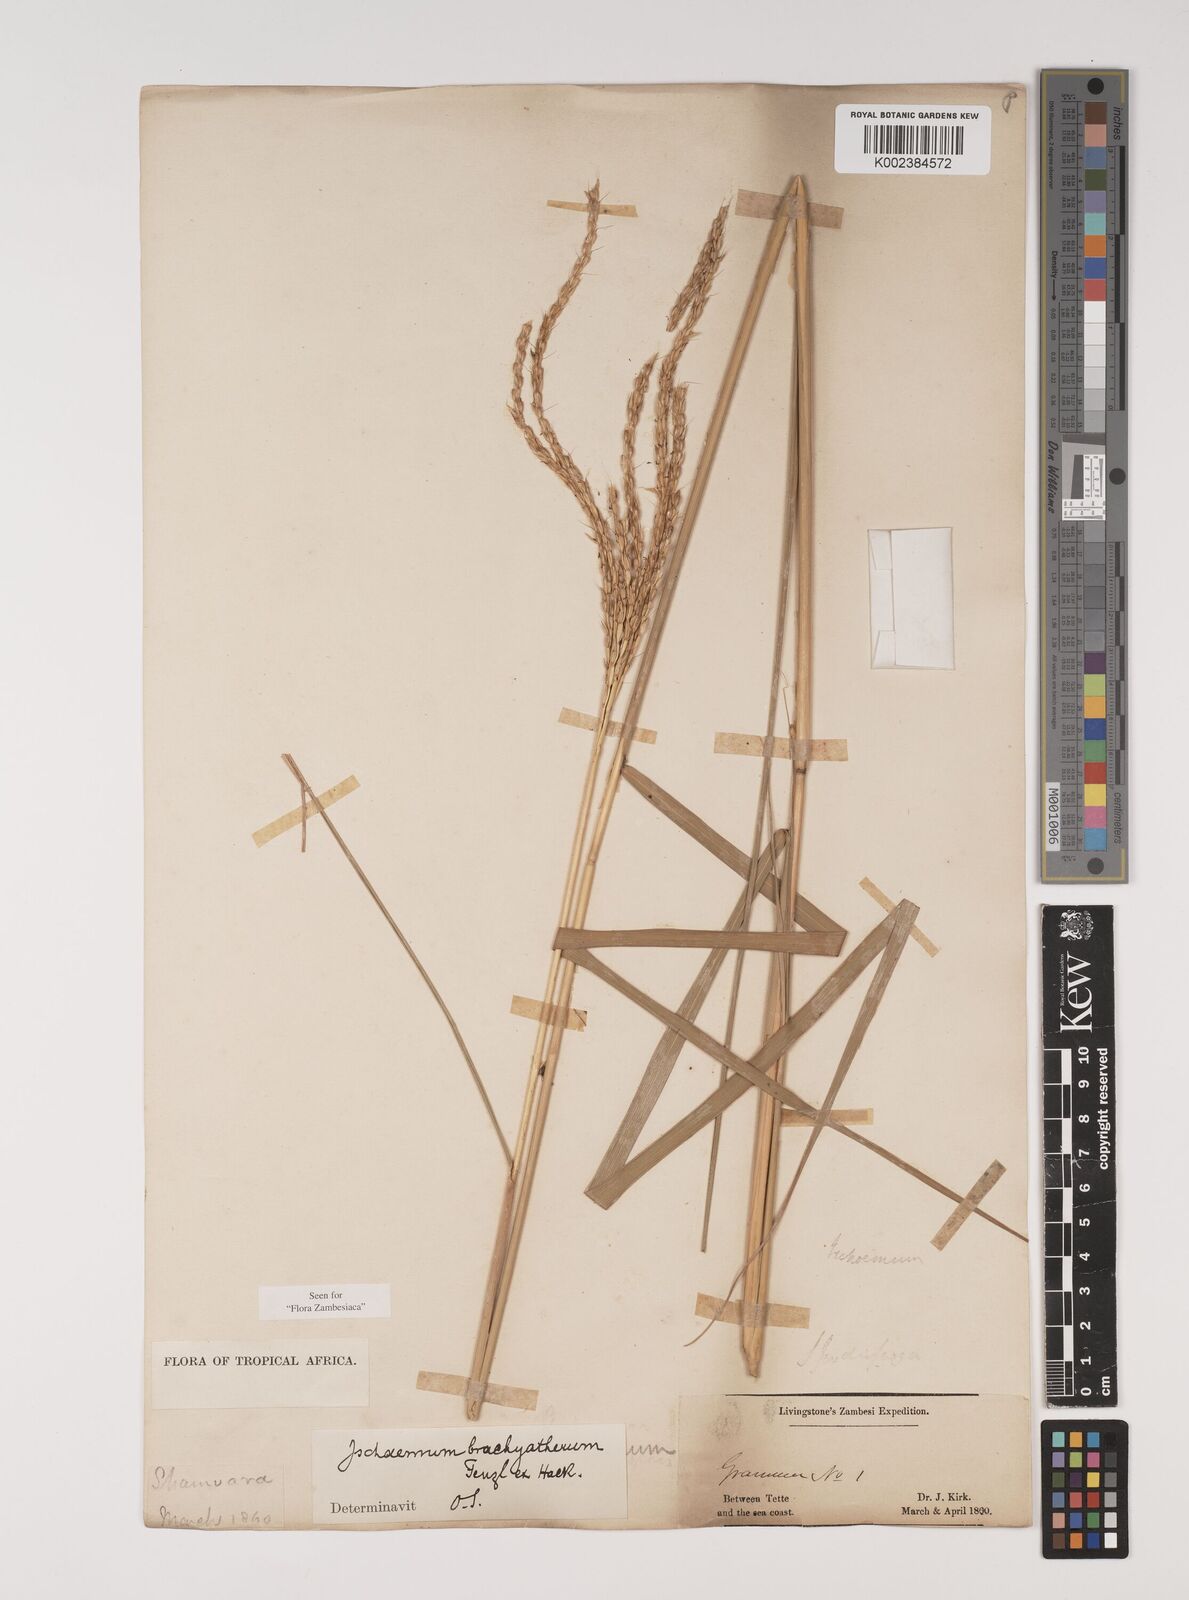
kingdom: Plantae
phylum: Tracheophyta
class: Liliopsida
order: Poales
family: Poaceae
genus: Ischaemum
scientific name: Ischaemum afrum
